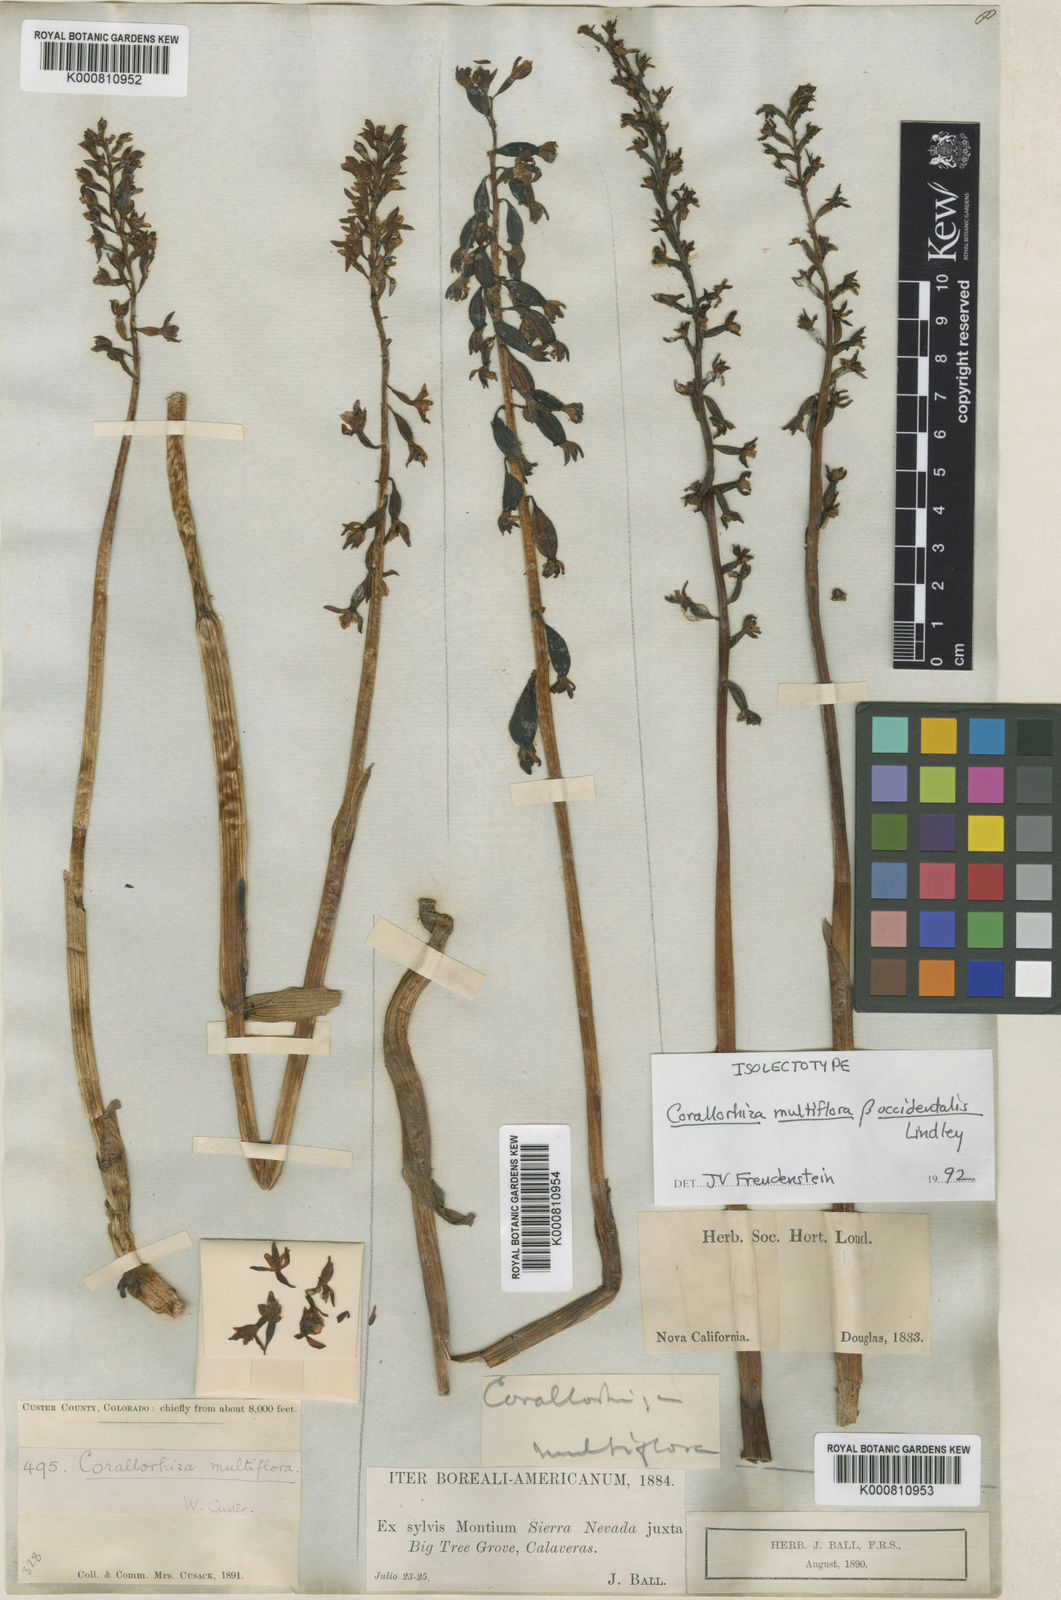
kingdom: Plantae
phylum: Tracheophyta
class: Liliopsida
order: Asparagales
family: Orchidaceae
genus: Corallorhiza
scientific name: Corallorhiza maculata
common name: Spotted coralroot
